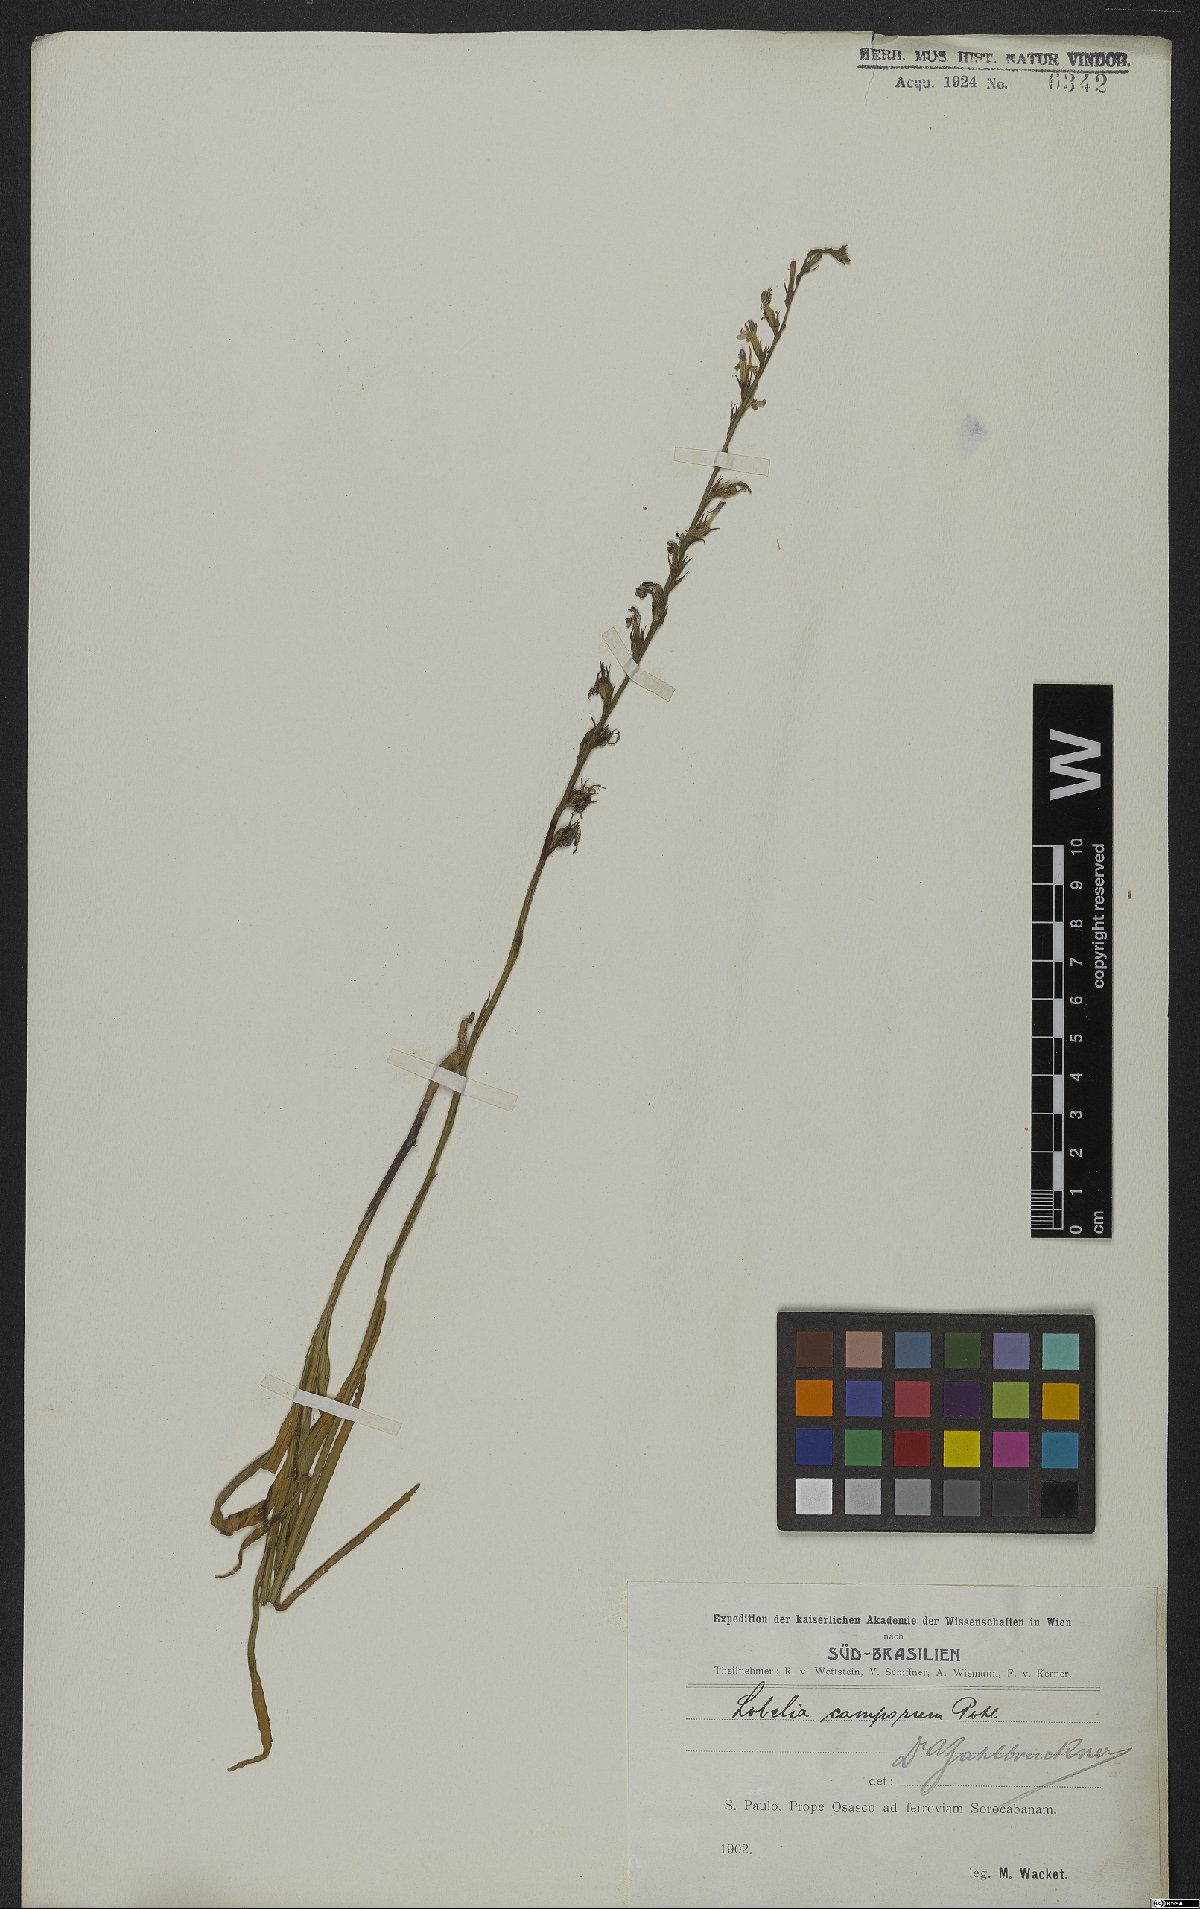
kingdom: Plantae
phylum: Tracheophyta
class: Magnoliopsida
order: Asterales
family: Campanulaceae
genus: Lobelia
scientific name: Lobelia camporum
